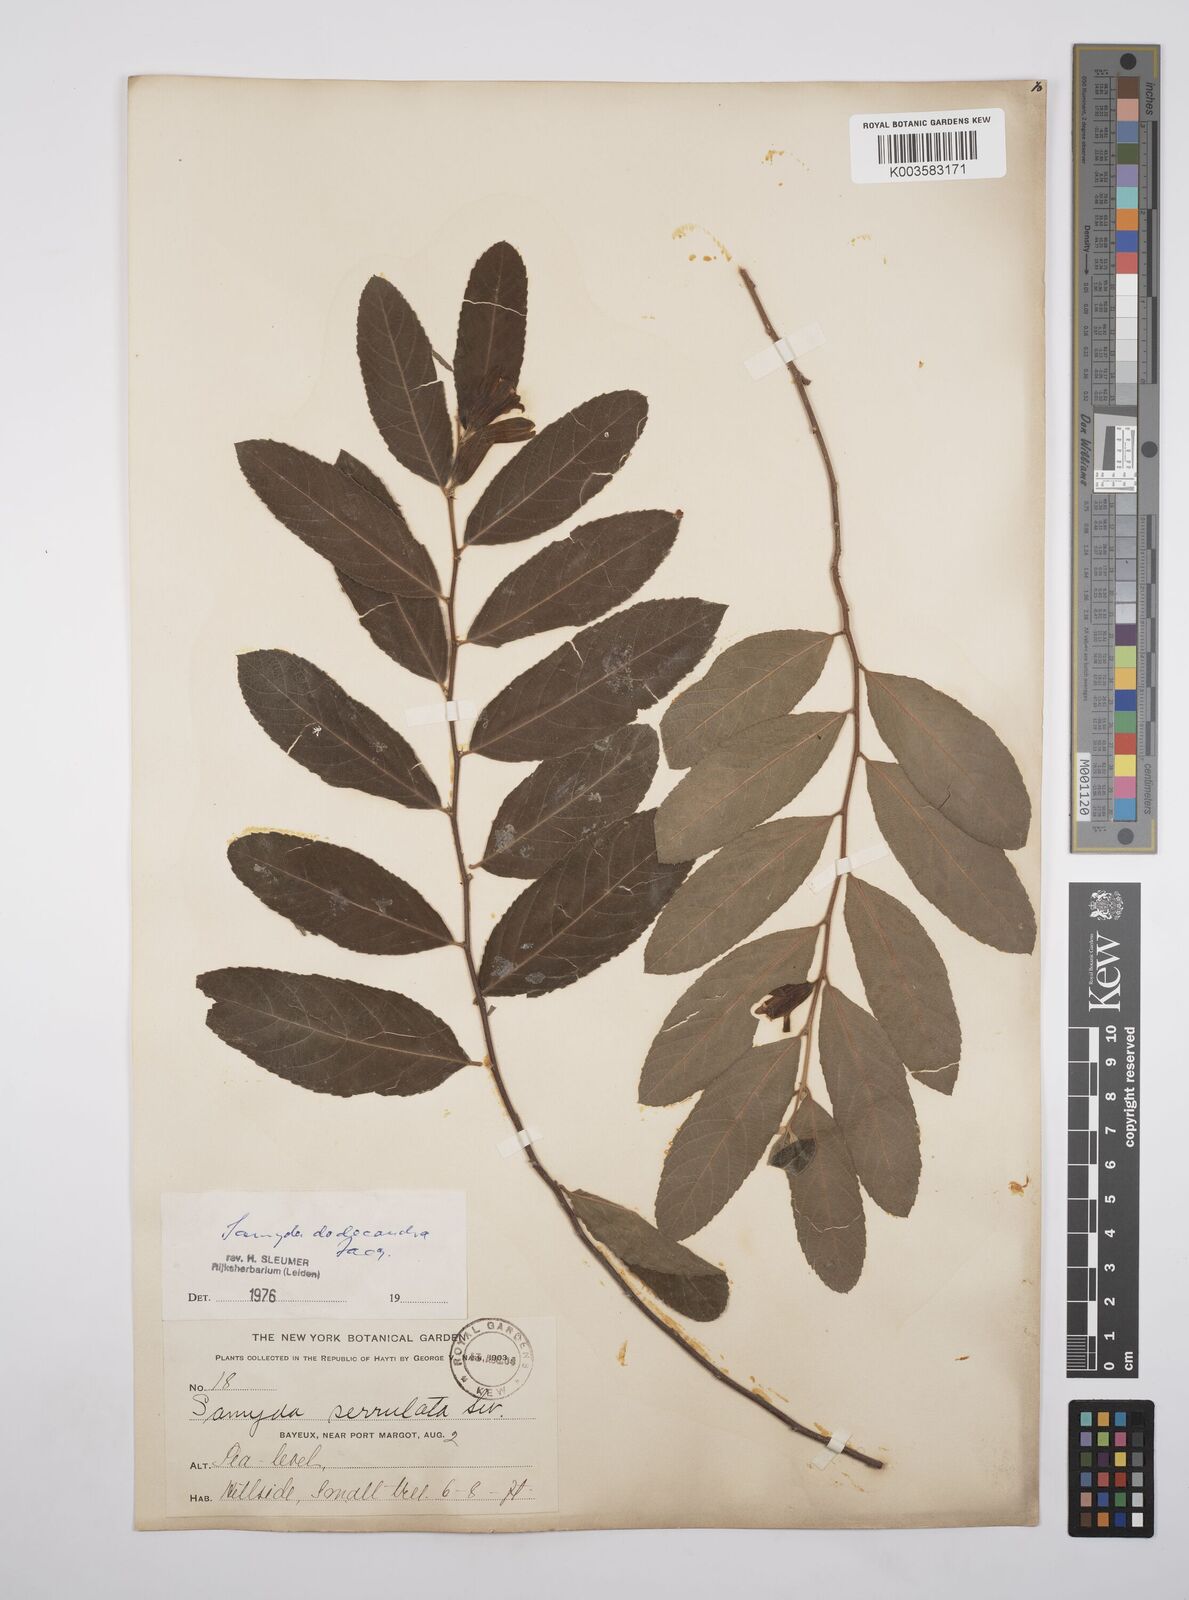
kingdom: Plantae
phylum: Tracheophyta
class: Magnoliopsida
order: Malpighiales
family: Salicaceae
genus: Casearia
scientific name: Casearia dodecandra
